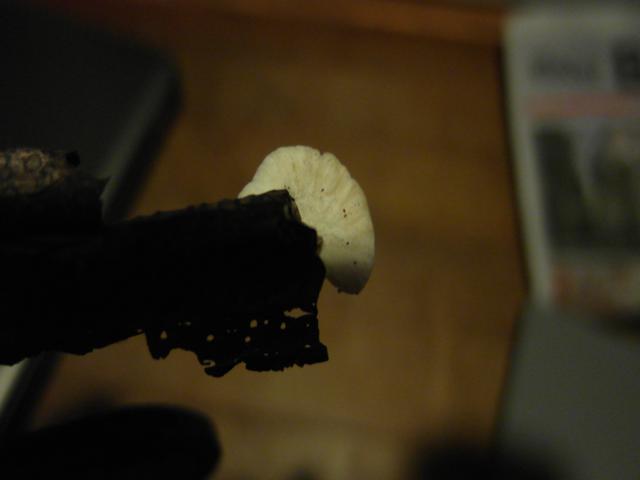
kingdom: Fungi
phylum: Basidiomycota
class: Agaricomycetes
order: Agaricales
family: Crepidotaceae
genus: Crepidotus
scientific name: Crepidotus cesatii
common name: almindelig muslingesvamp
